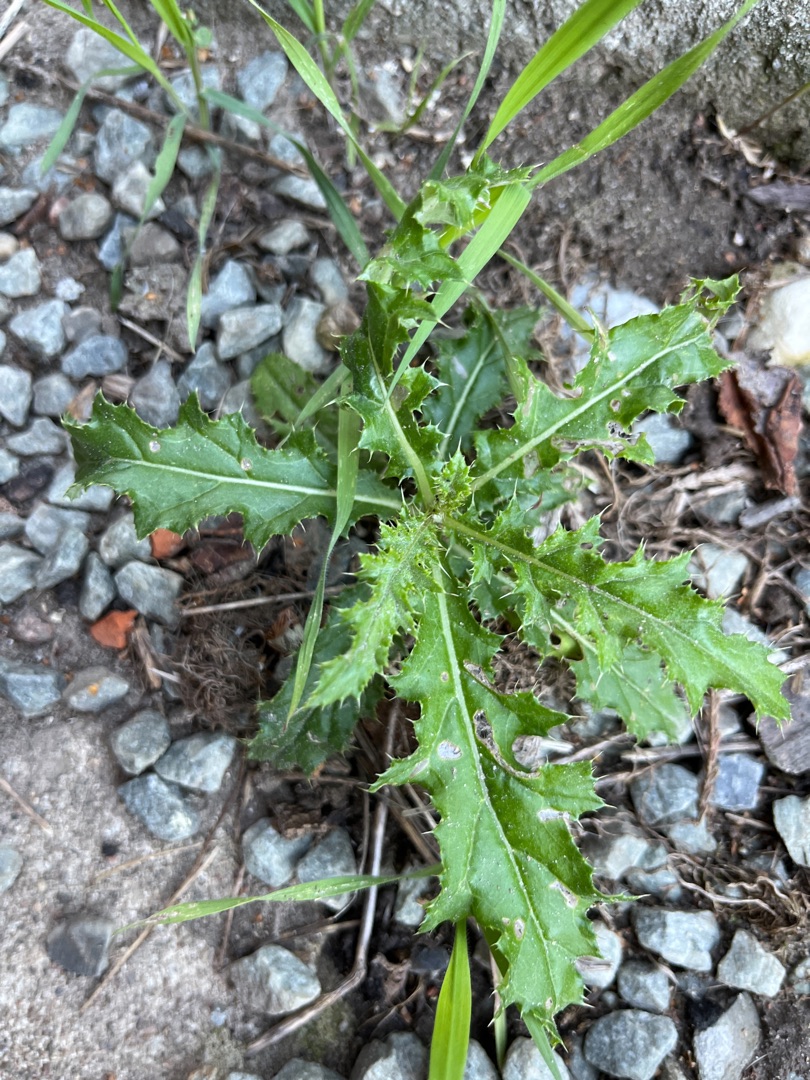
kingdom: Plantae
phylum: Tracheophyta
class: Magnoliopsida
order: Asterales
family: Asteraceae
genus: Cirsium
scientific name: Cirsium arvense
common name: Ager-tidsel
